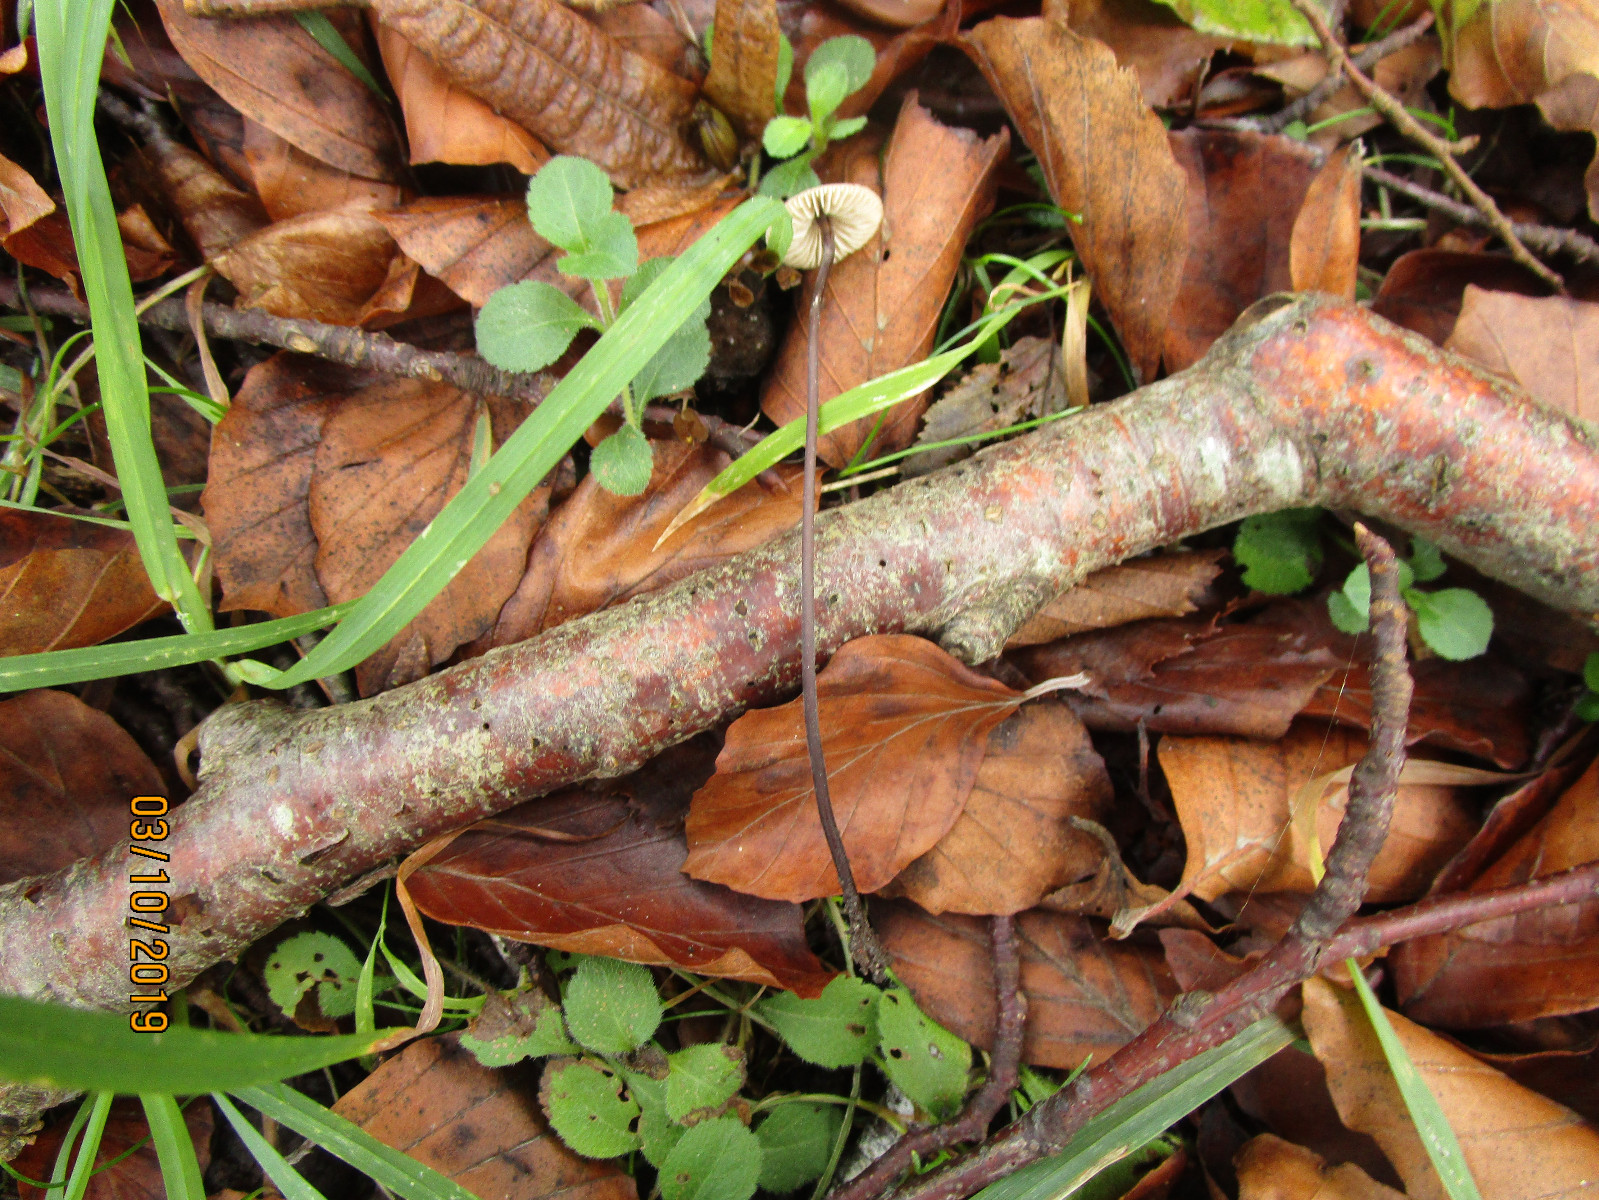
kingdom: Fungi
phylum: Basidiomycota
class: Agaricomycetes
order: Agaricales
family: Omphalotaceae
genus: Mycetinis
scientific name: Mycetinis alliaceus
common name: stor løghat
